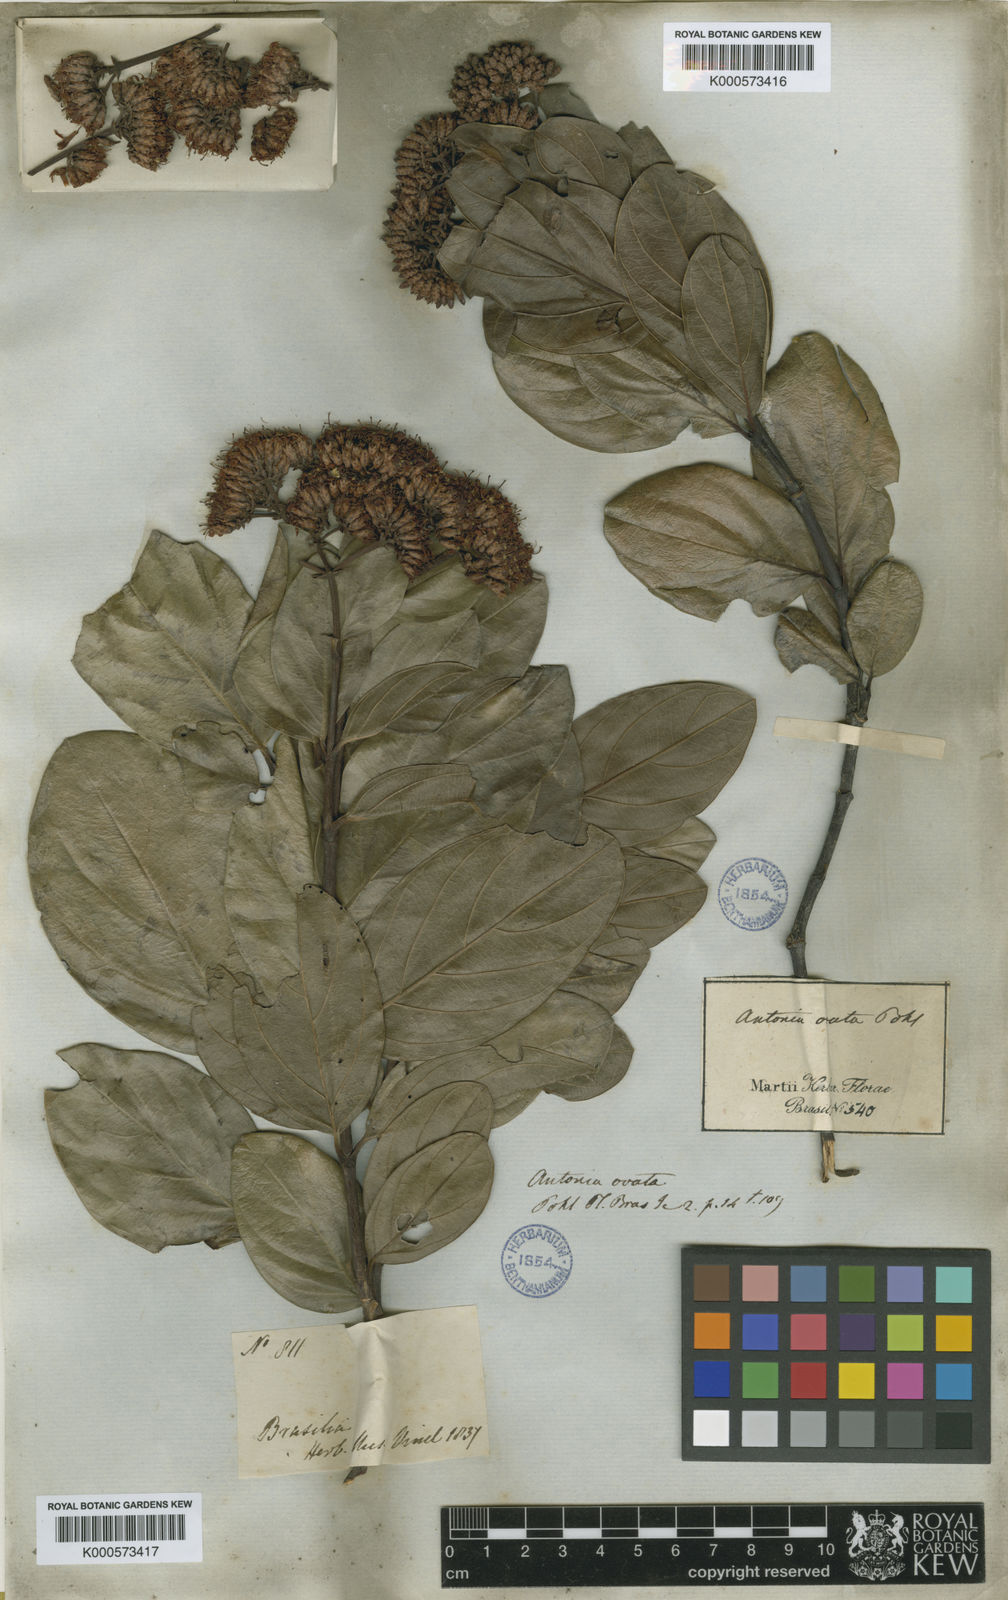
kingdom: Plantae
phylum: Tracheophyta
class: Magnoliopsida
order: Gentianales
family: Loganiaceae
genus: Antonia
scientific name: Antonia ovata
